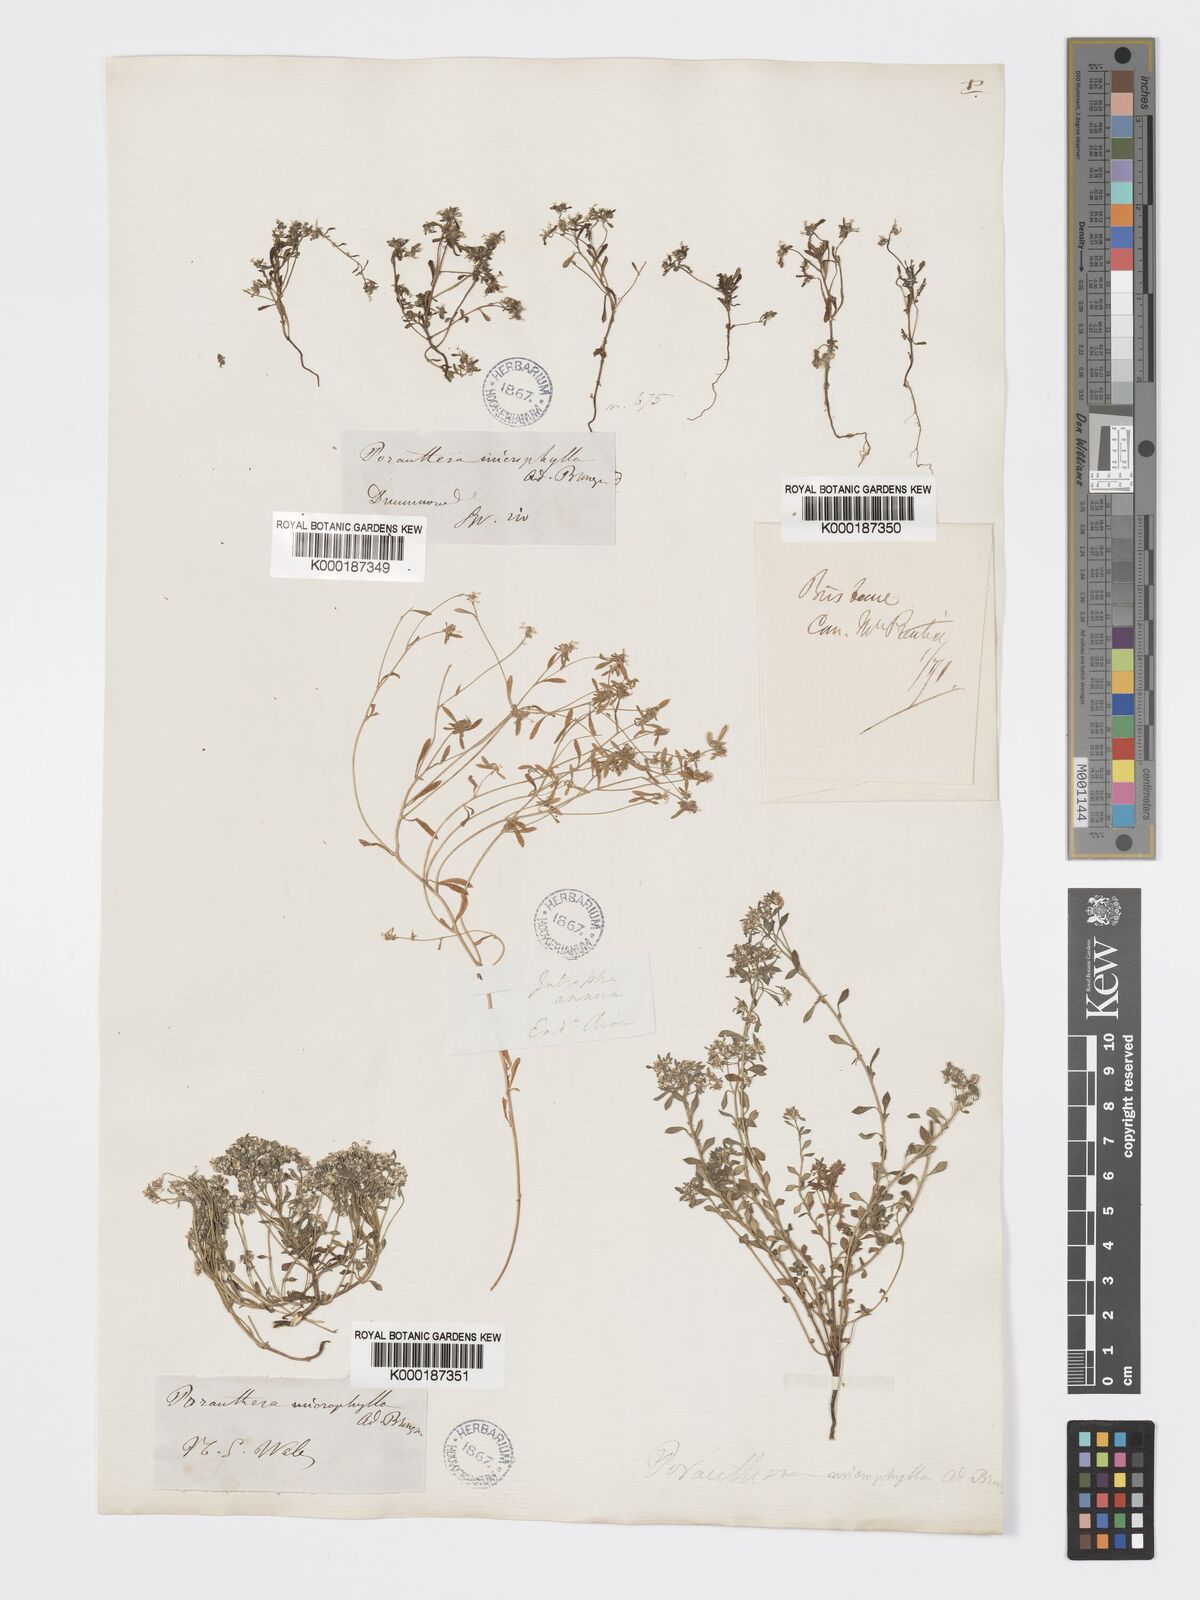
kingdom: Plantae
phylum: Tracheophyta
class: Magnoliopsida
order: Malpighiales
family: Phyllanthaceae
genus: Poranthera
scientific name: Poranthera microphylla
